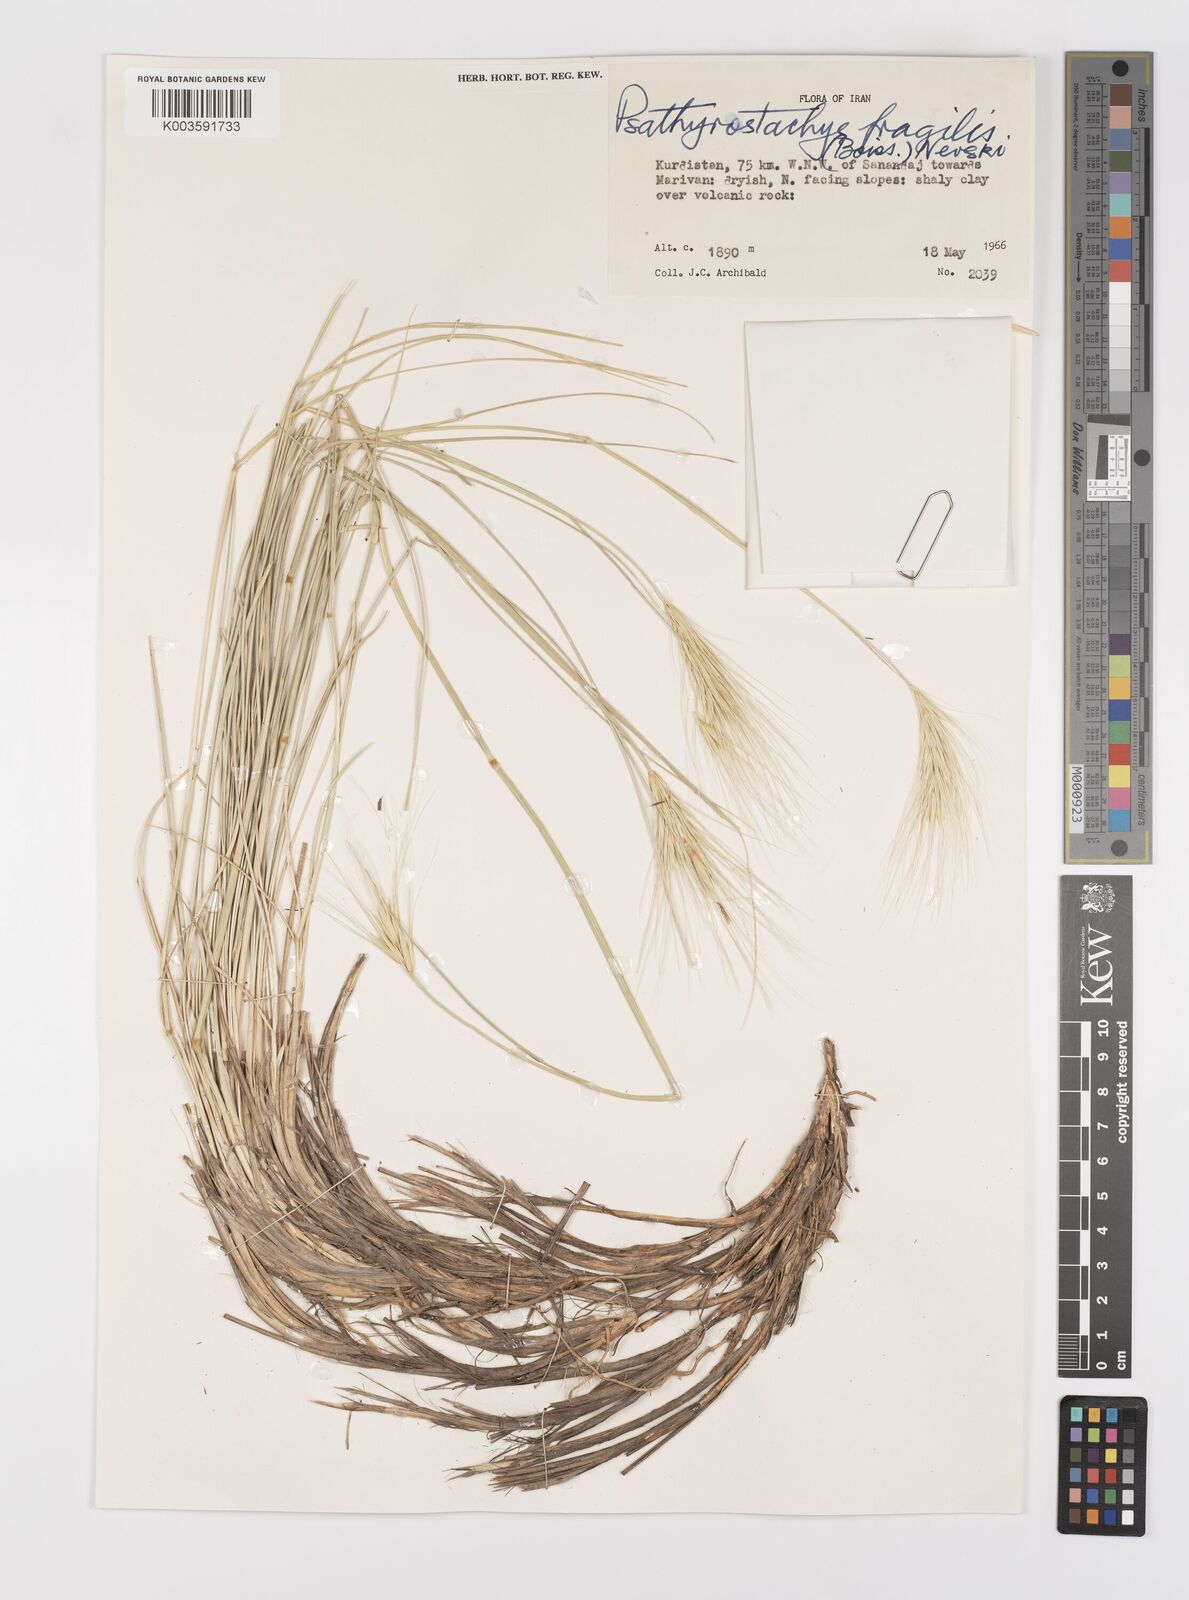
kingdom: Plantae
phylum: Tracheophyta
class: Liliopsida
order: Poales
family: Poaceae
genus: Psathyrostachys
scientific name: Psathyrostachys fragilis
